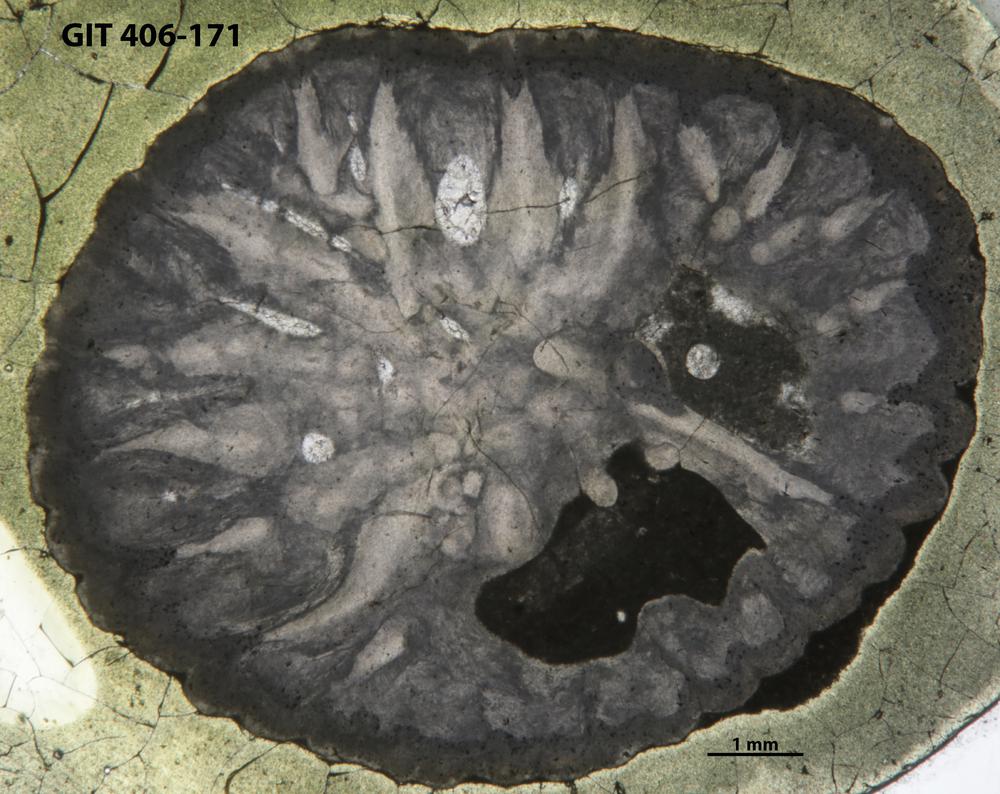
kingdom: Animalia
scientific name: Animalia
